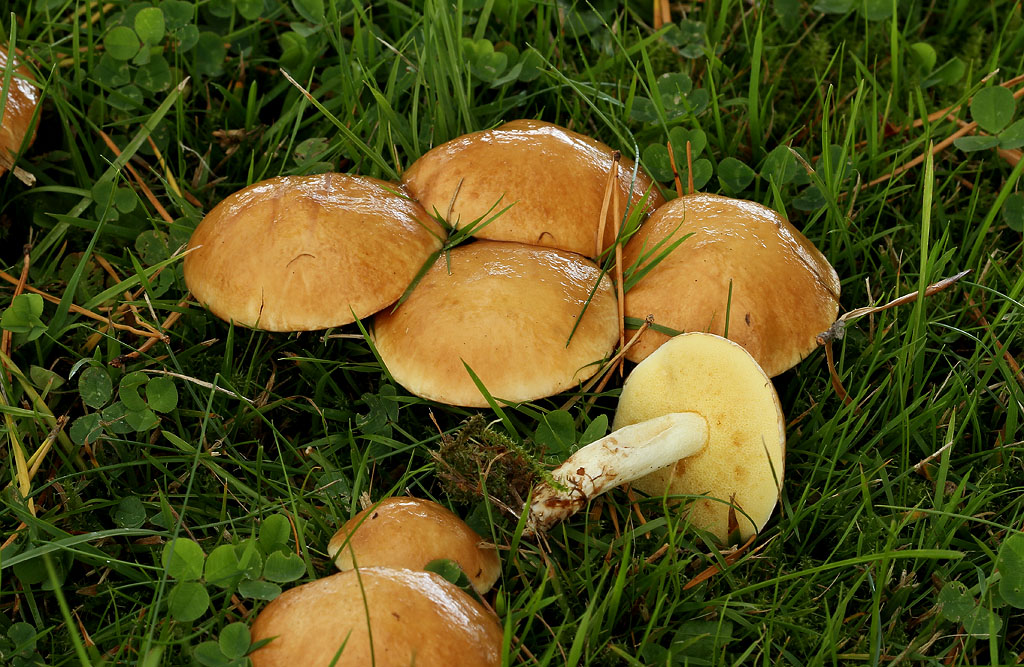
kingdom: Fungi
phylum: Basidiomycota
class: Agaricomycetes
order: Boletales
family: Suillaceae
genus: Suillus
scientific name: Suillus granulatus
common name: kornet slimrørhat
